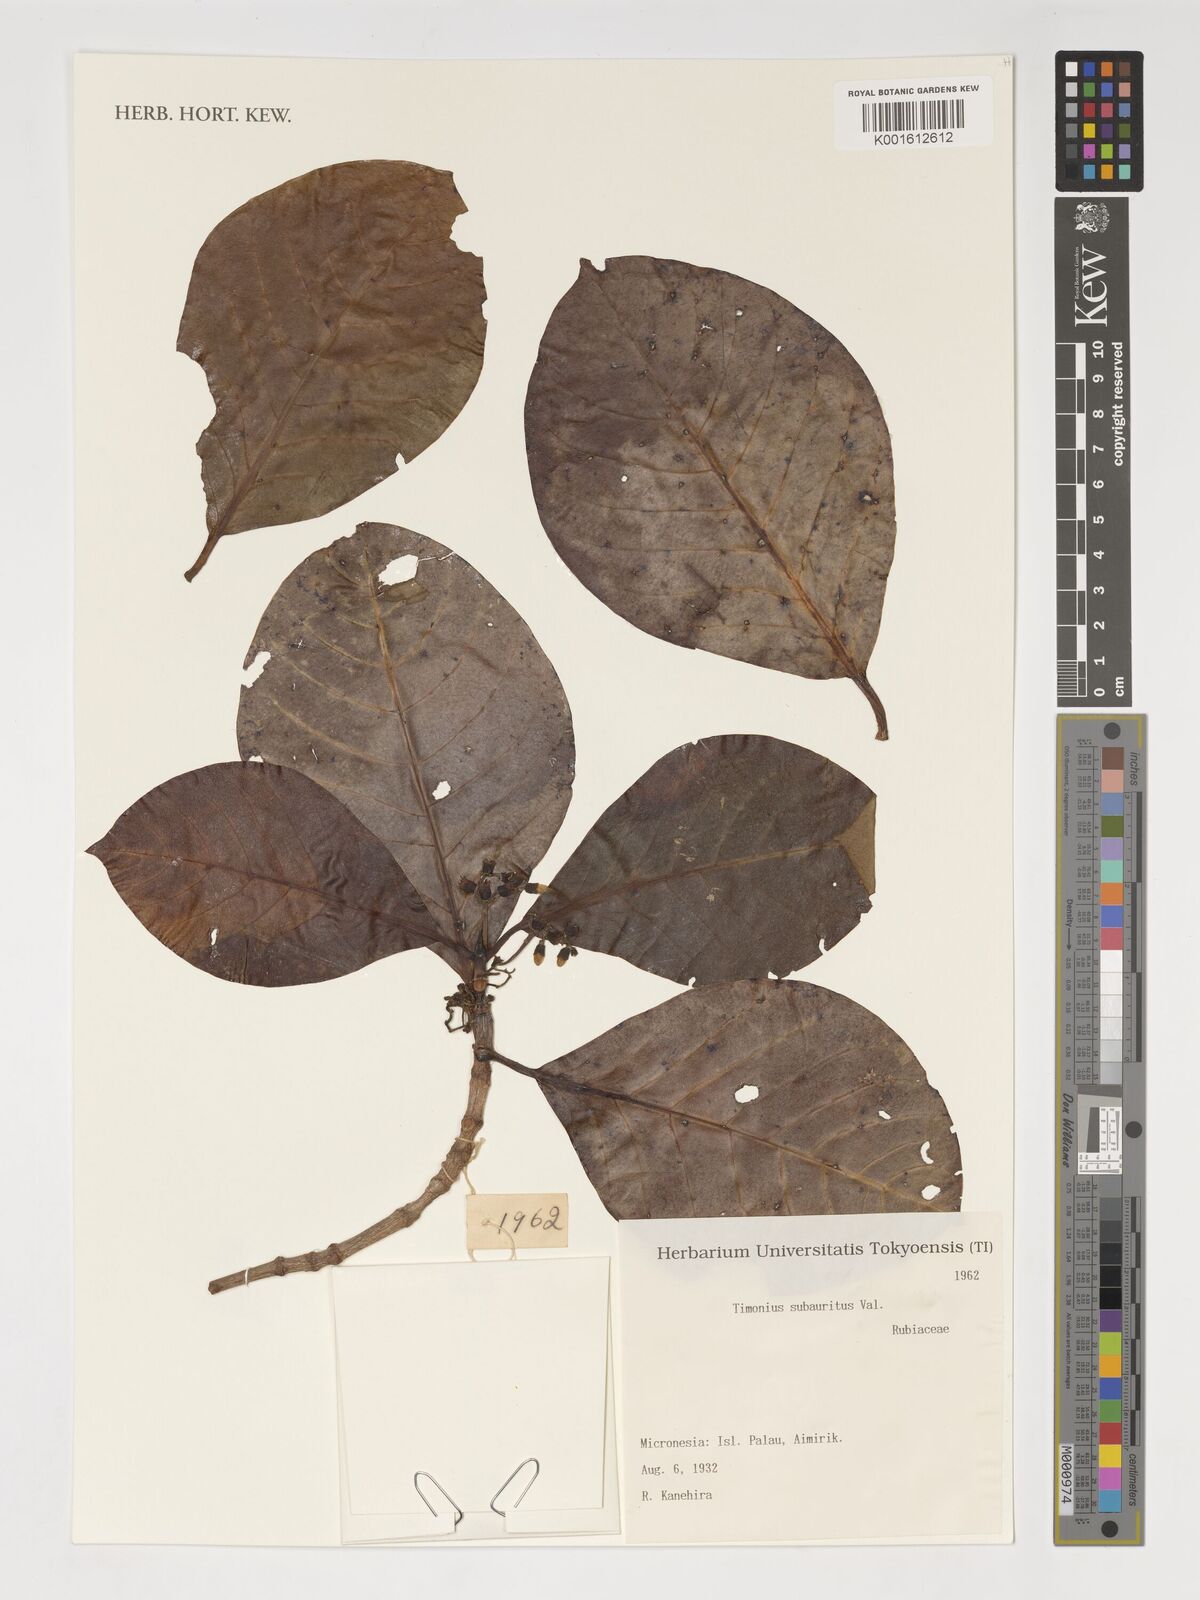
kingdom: Plantae
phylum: Tracheophyta
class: Magnoliopsida
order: Gentianales
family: Rubiaceae
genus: Timonius
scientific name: Timonius subauritus
